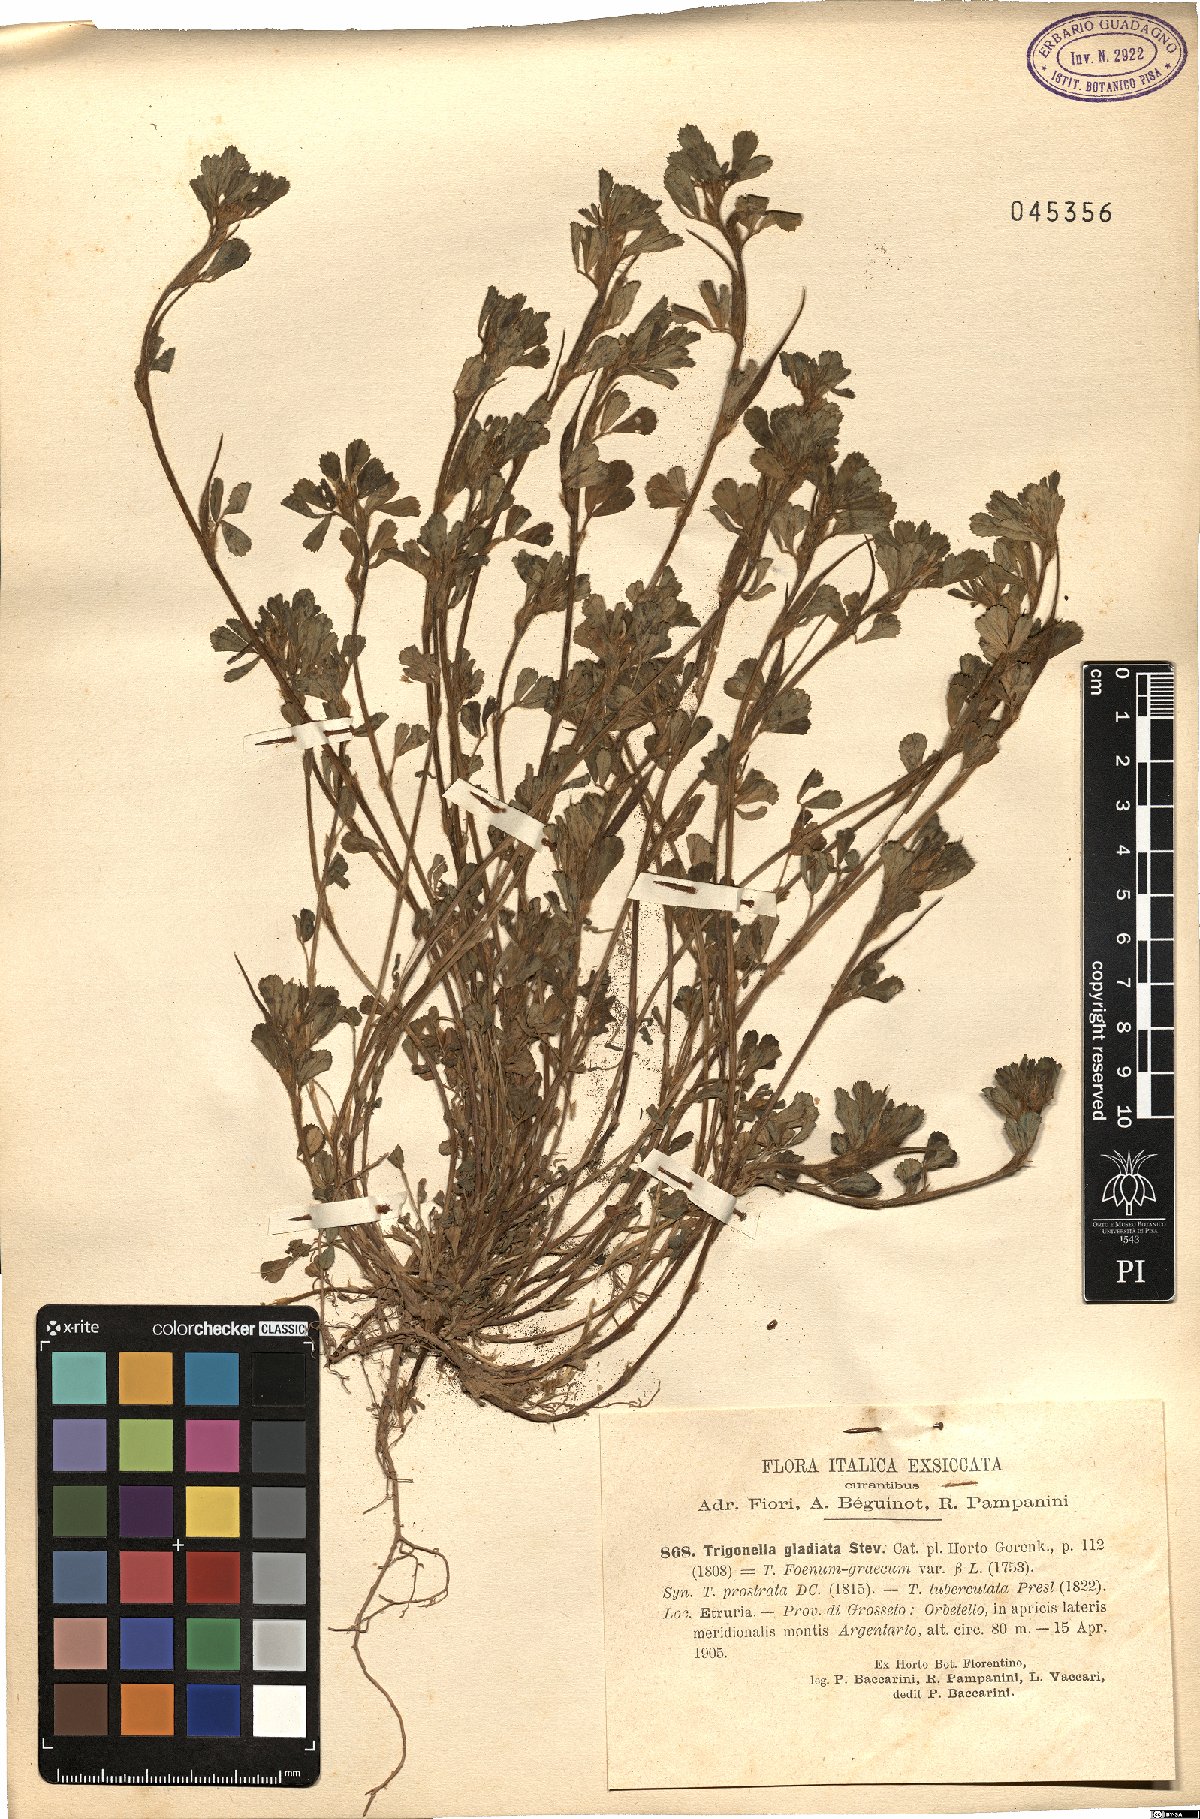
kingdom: Plantae
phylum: Tracheophyta
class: Magnoliopsida
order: Fabales
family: Fabaceae
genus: Trigonella
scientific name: Trigonella gladiata
